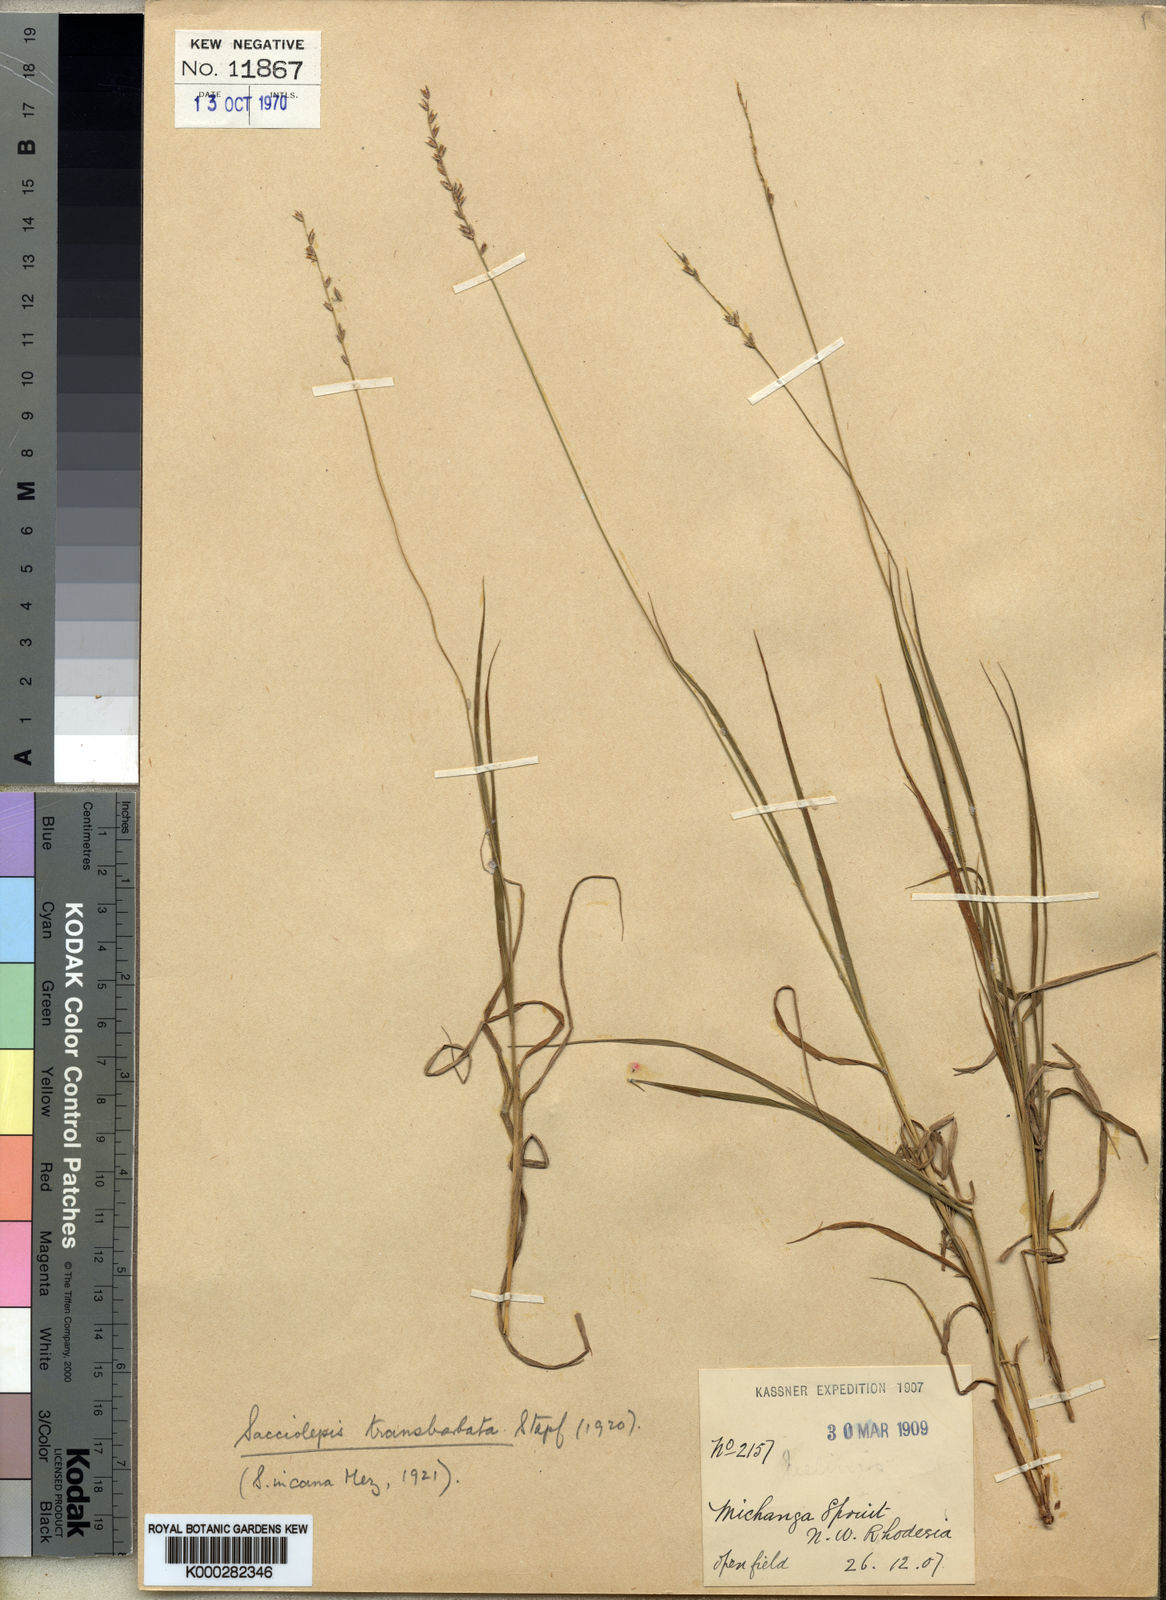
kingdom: Plantae
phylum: Tracheophyta
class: Liliopsida
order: Poales
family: Poaceae
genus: Sacciolepis
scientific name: Sacciolepis transbarbata
